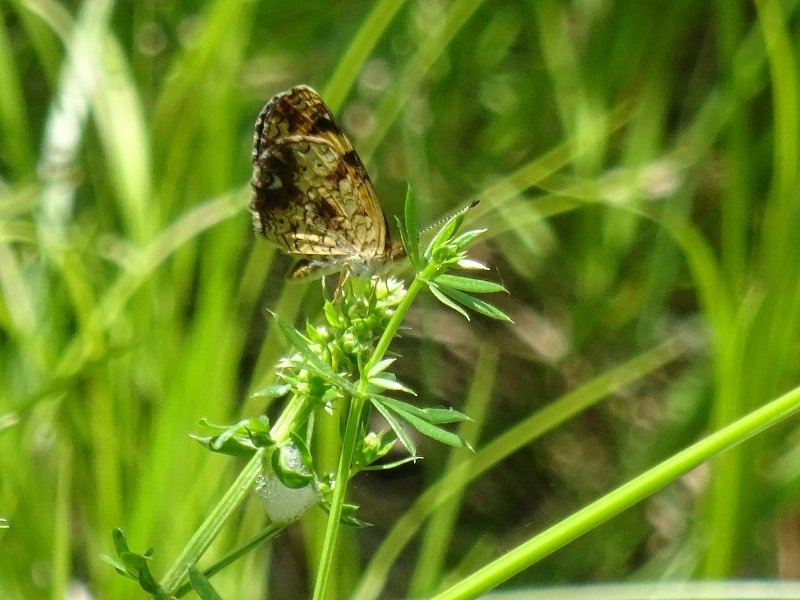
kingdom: Animalia
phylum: Arthropoda
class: Insecta
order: Lepidoptera
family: Nymphalidae
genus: Phyciodes
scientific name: Phyciodes tharos
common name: Pearl Crescent
